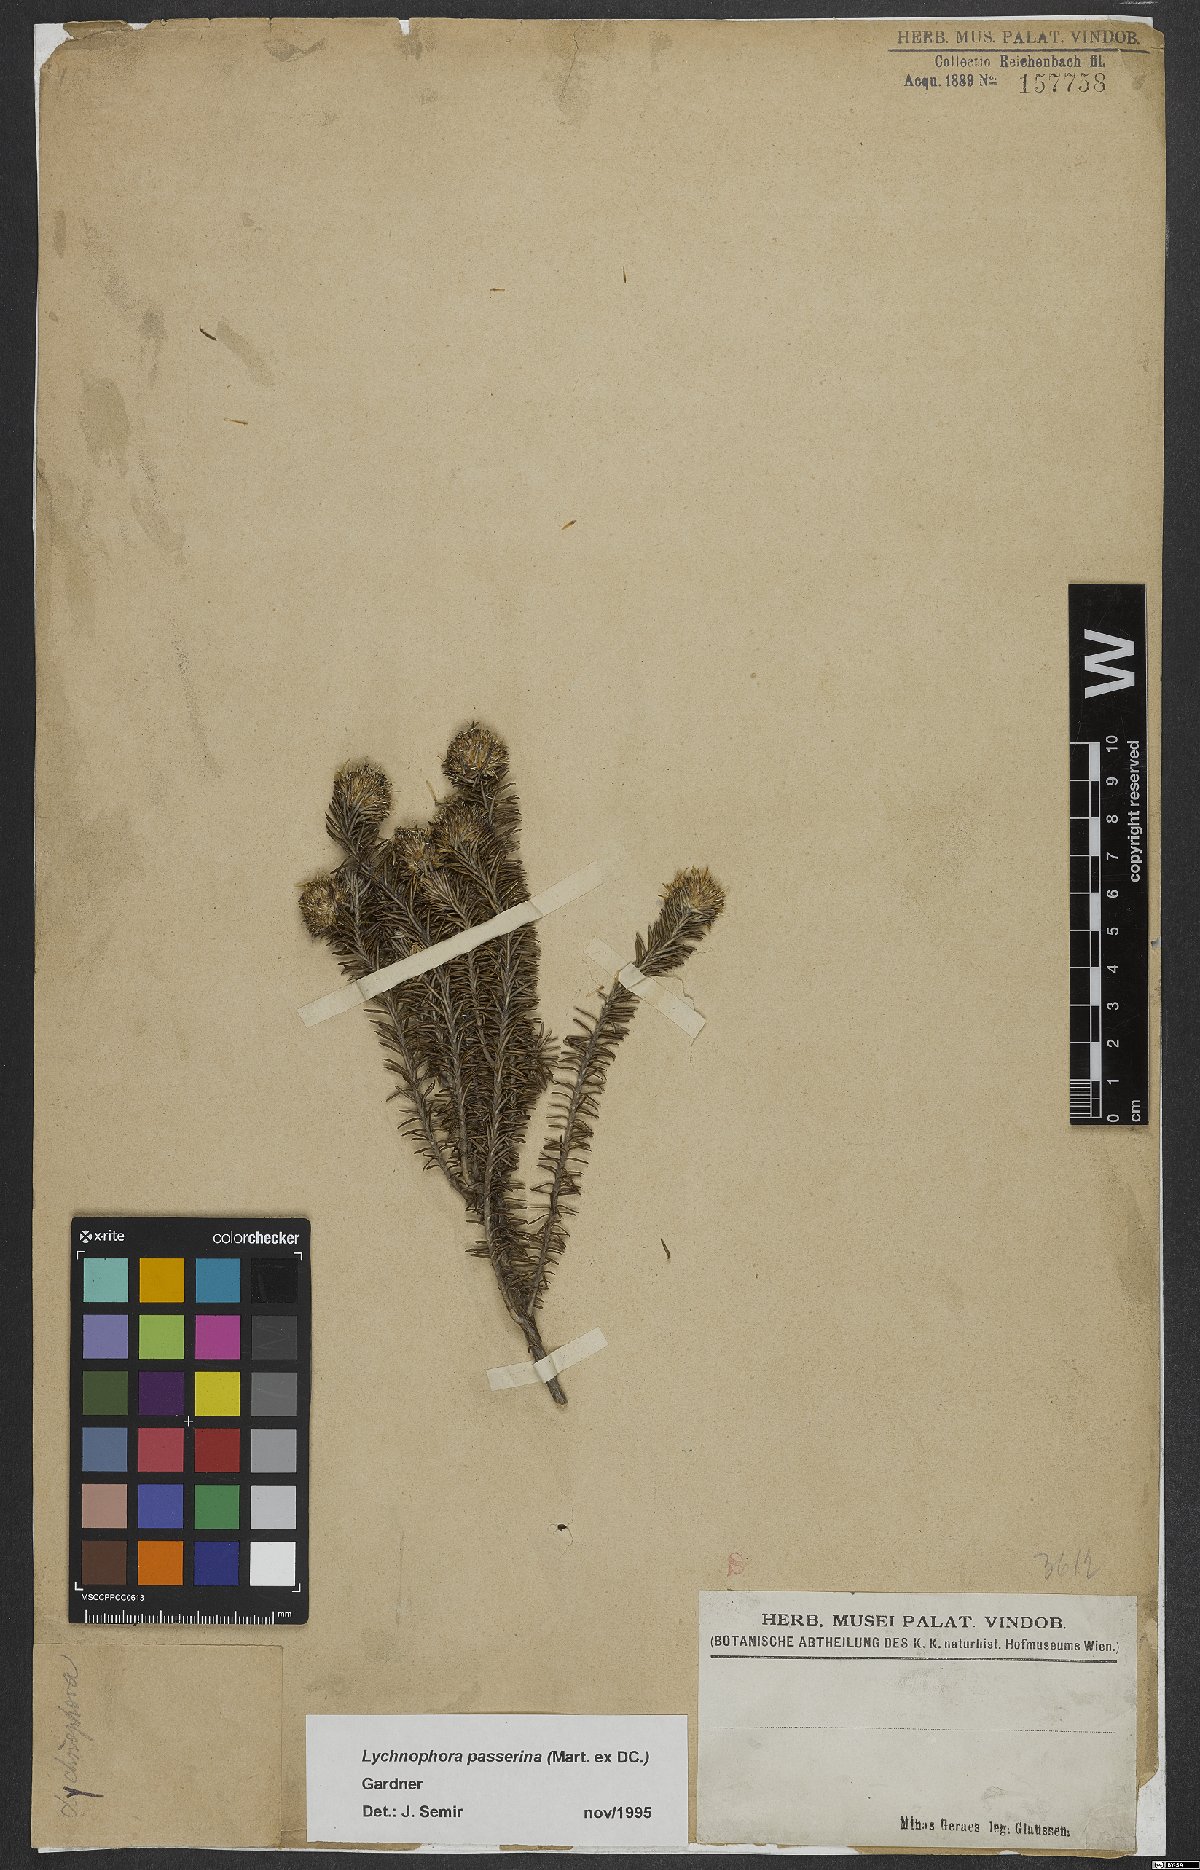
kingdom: Plantae
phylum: Tracheophyta
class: Magnoliopsida
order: Asterales
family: Asteraceae
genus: Lychnophora
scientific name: Lychnophora passerina
